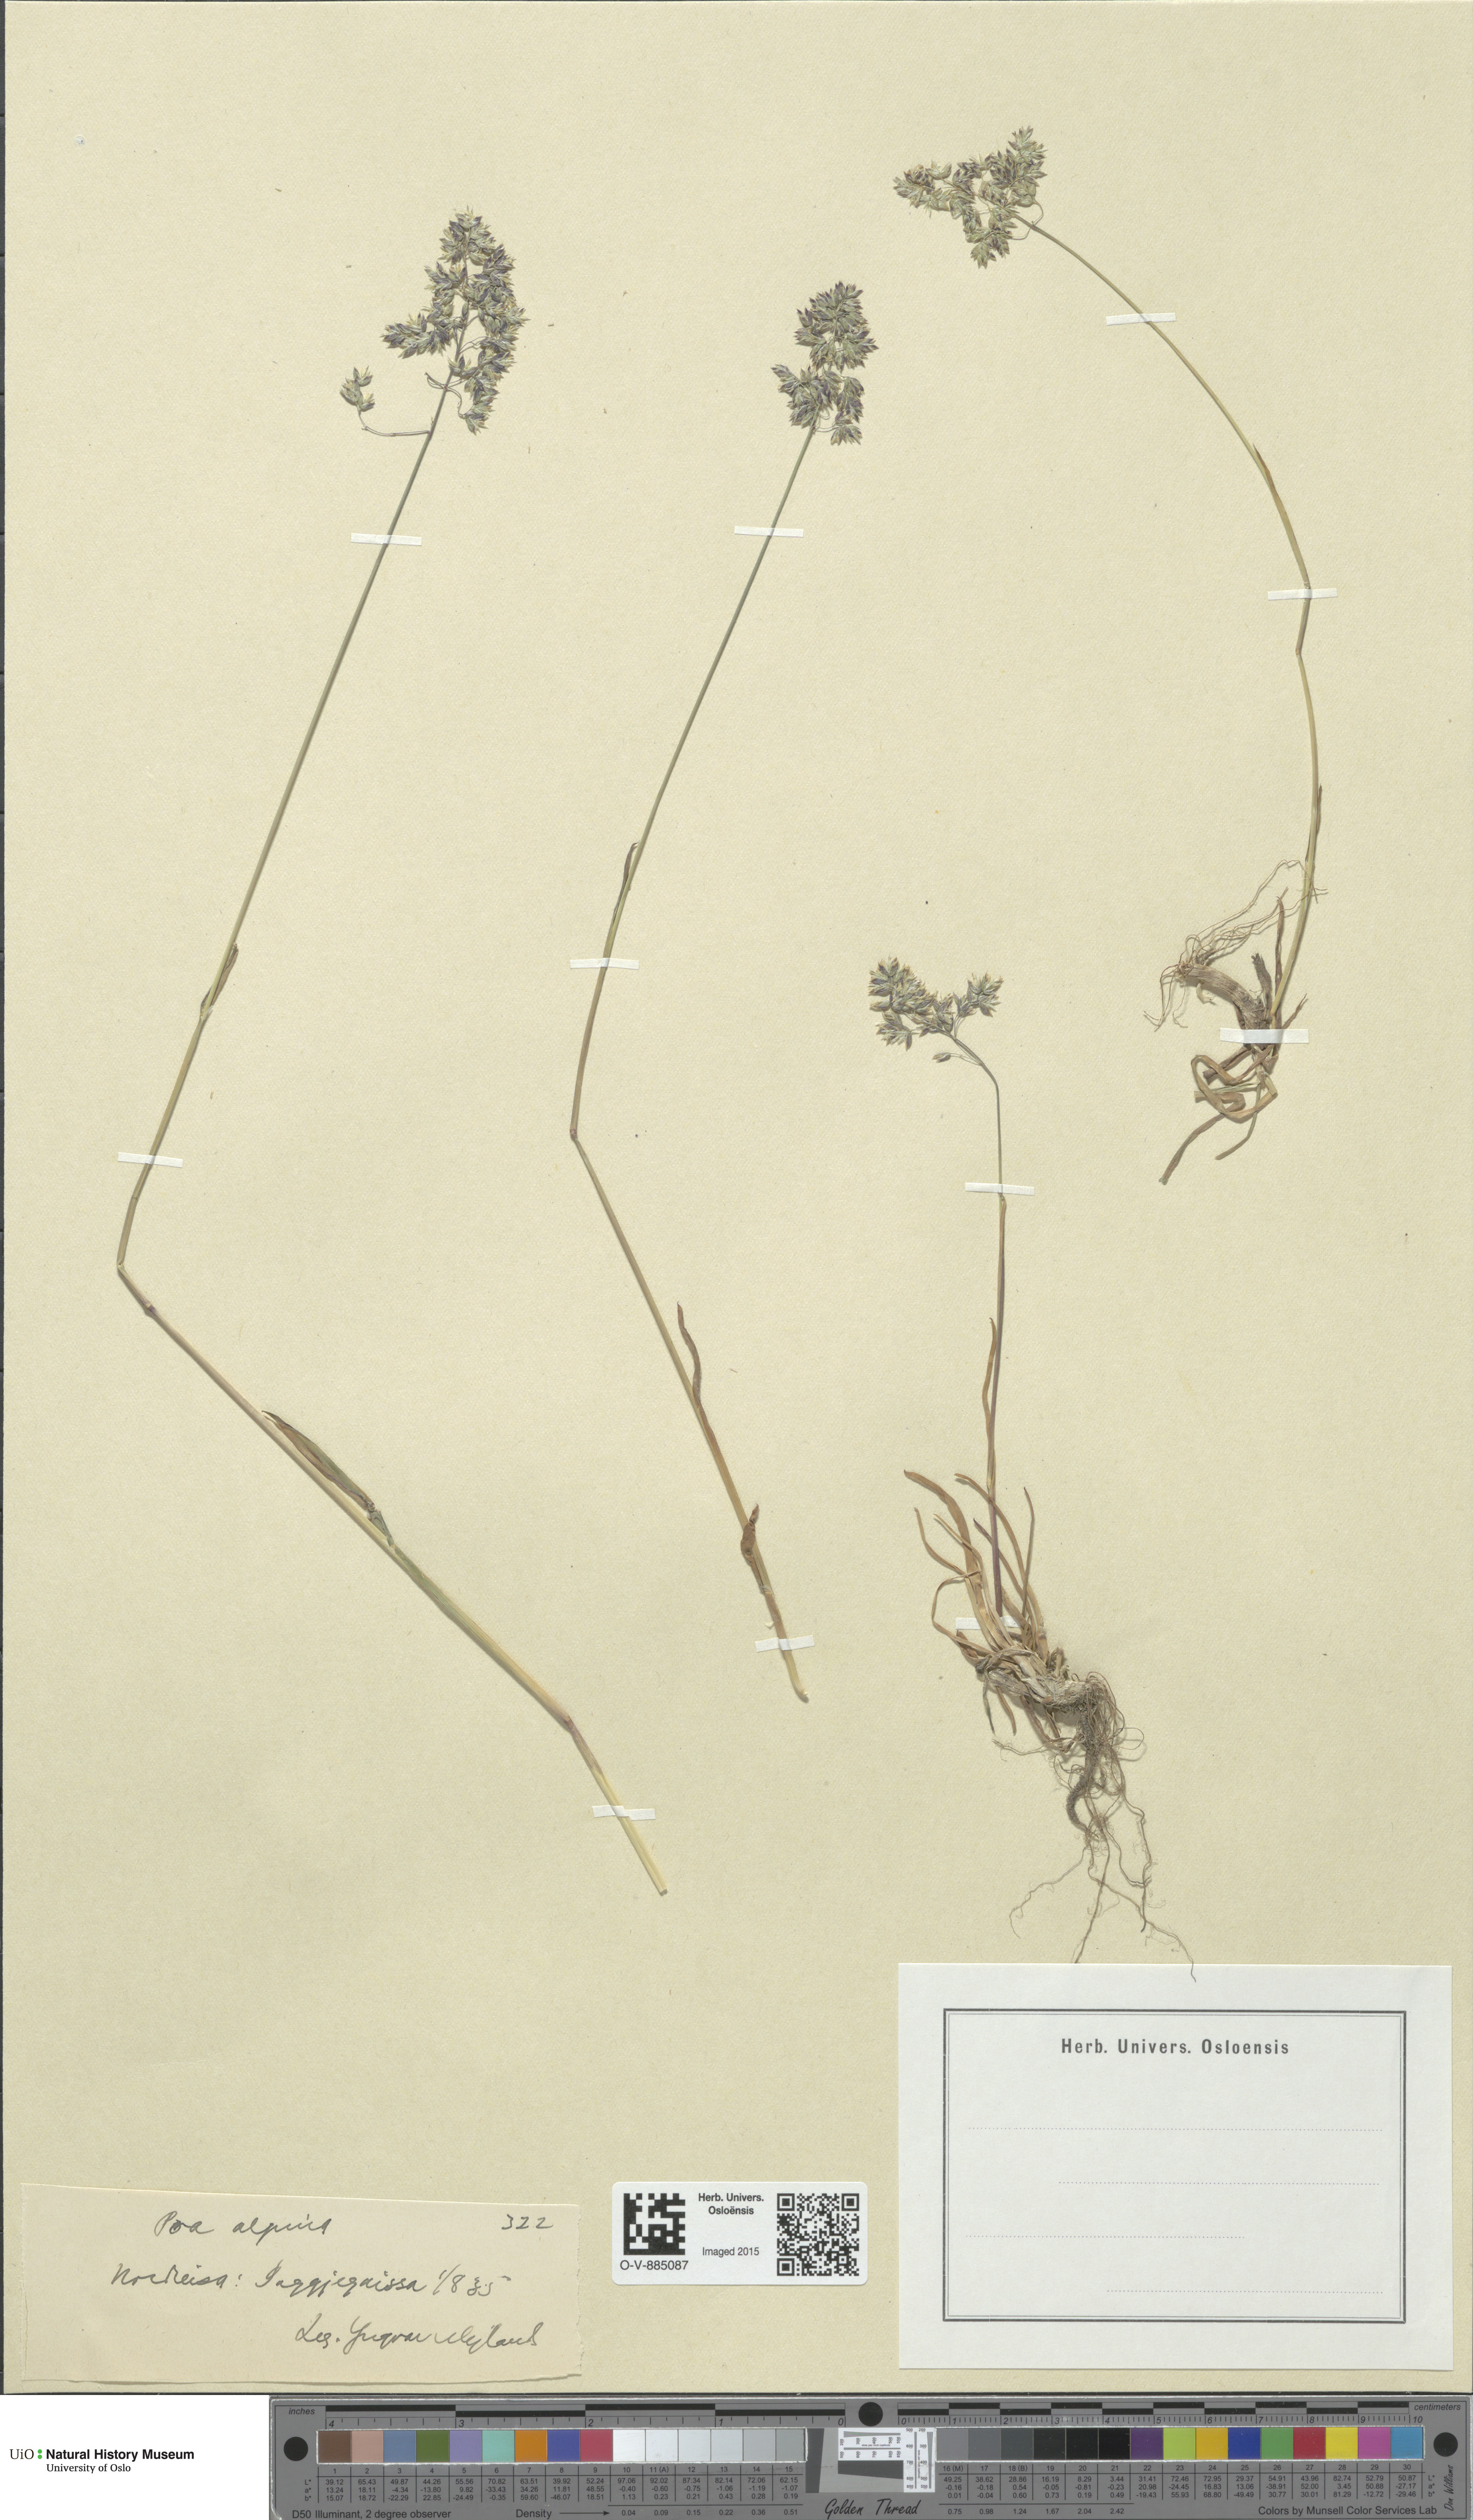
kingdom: Plantae
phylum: Tracheophyta
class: Liliopsida
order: Poales
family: Poaceae
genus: Poa
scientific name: Poa alpina
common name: Alpine bluegrass
